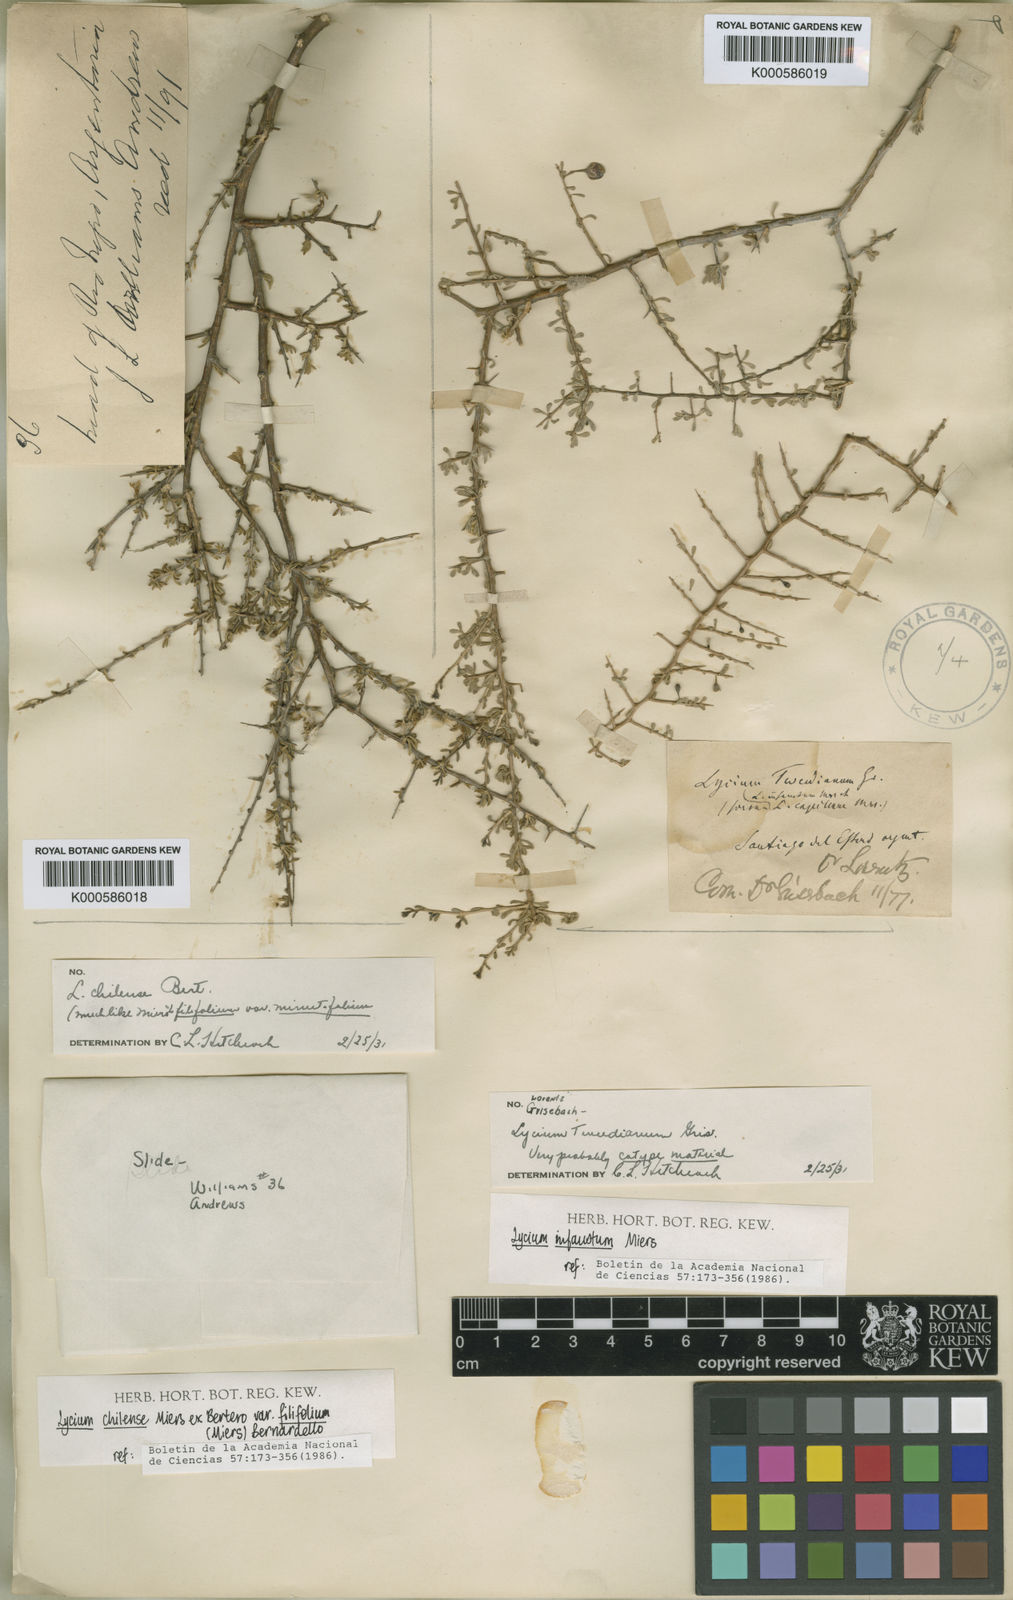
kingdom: Plantae
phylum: Tracheophyta
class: Magnoliopsida
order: Solanales
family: Solanaceae
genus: Lycium
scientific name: Lycium infaustum
